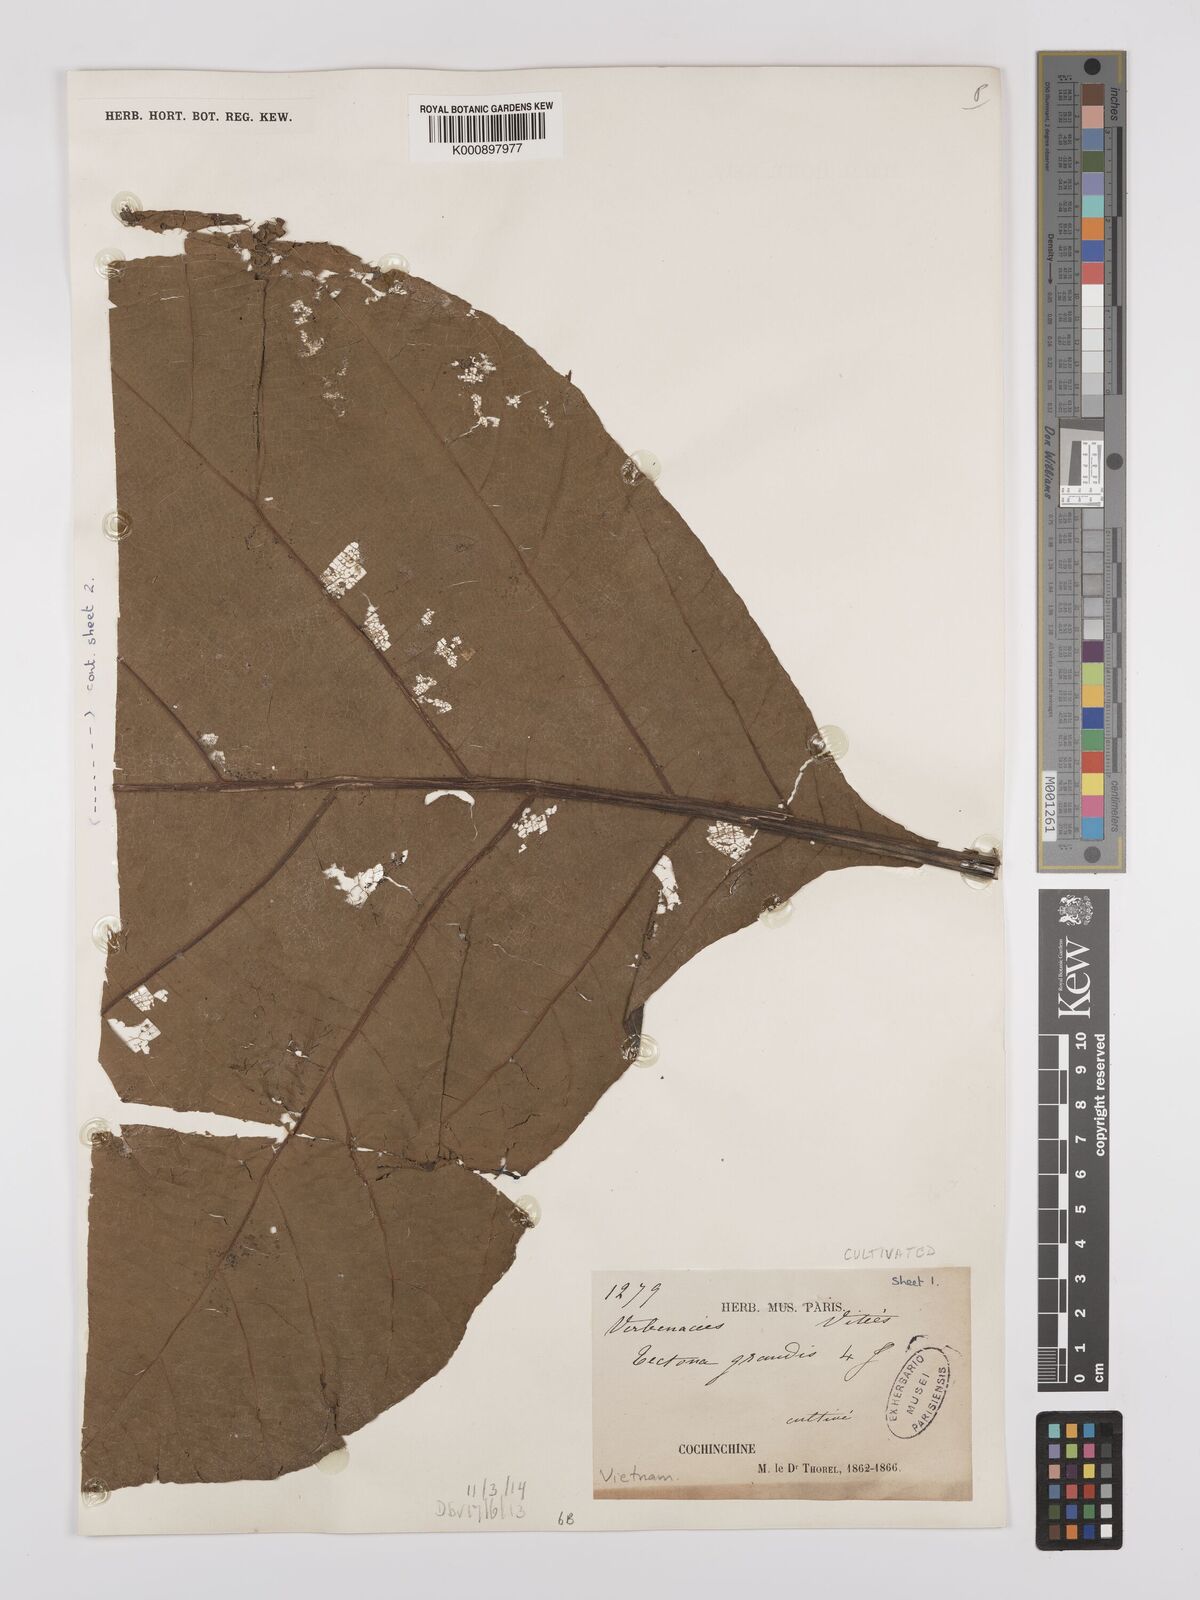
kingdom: Plantae
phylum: Tracheophyta
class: Magnoliopsida
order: Lamiales
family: Lamiaceae
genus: Tectona
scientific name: Tectona grandis
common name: Teak
